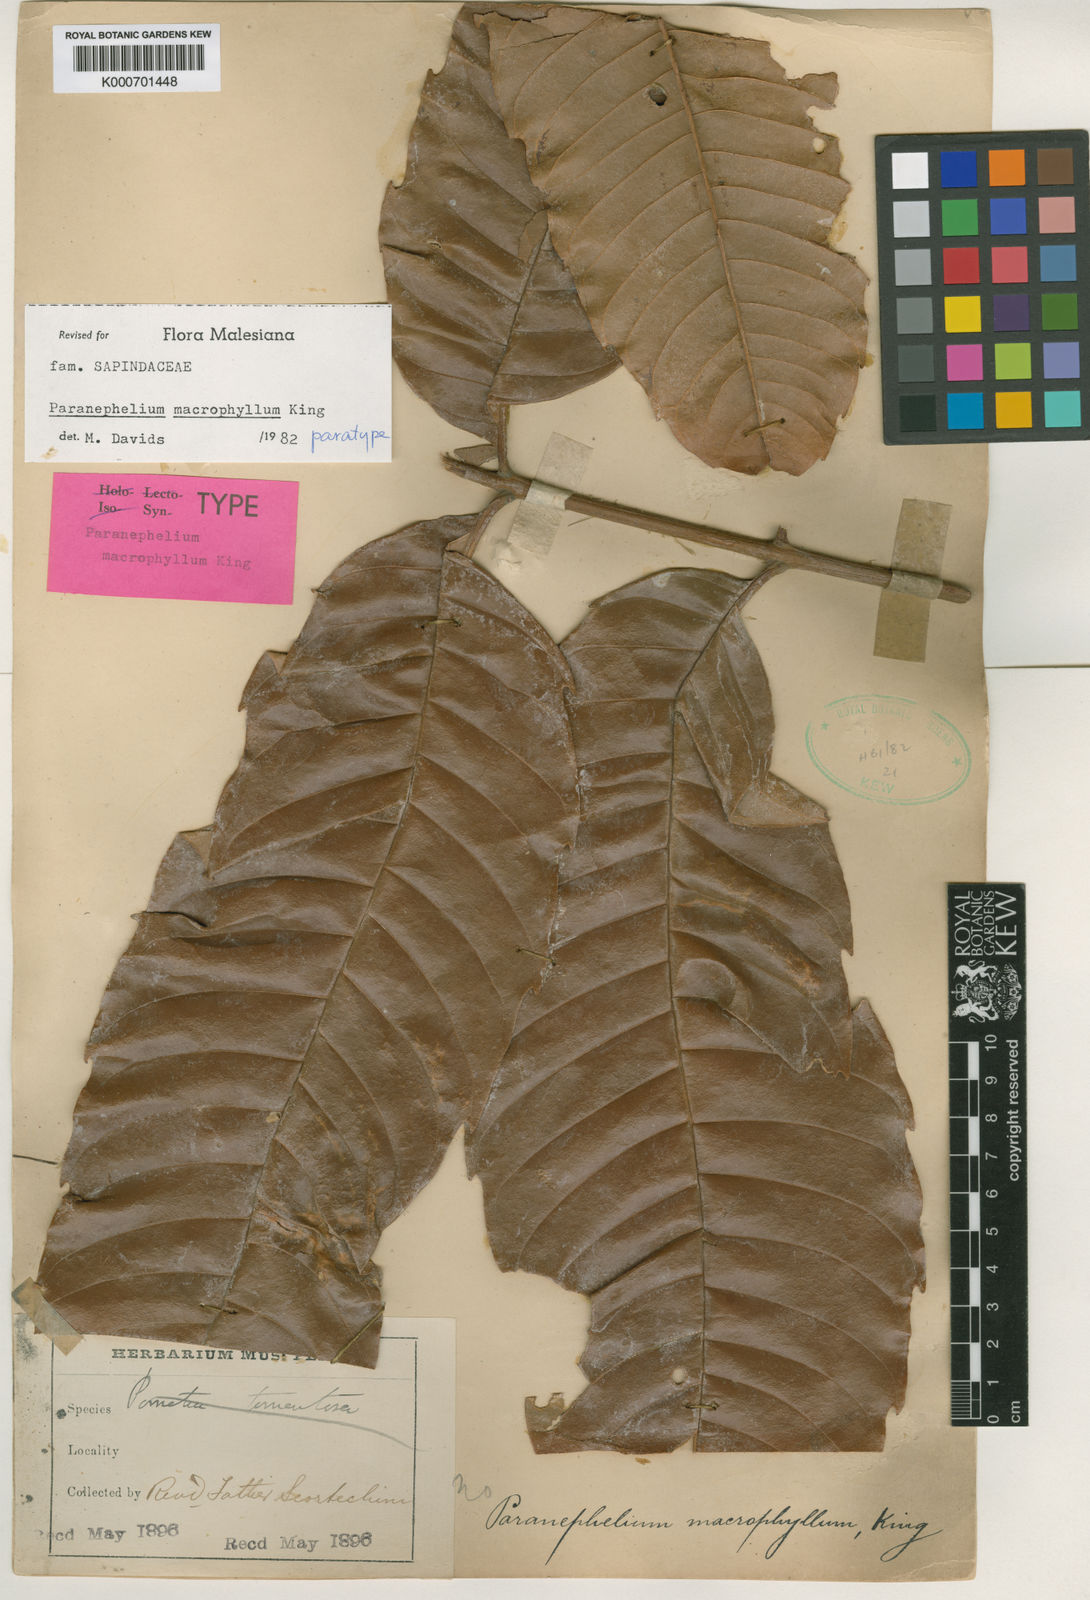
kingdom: Plantae
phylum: Tracheophyta
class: Magnoliopsida
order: Sapindales
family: Sapindaceae
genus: Paranephelium
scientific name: Paranephelium macrophyllum
